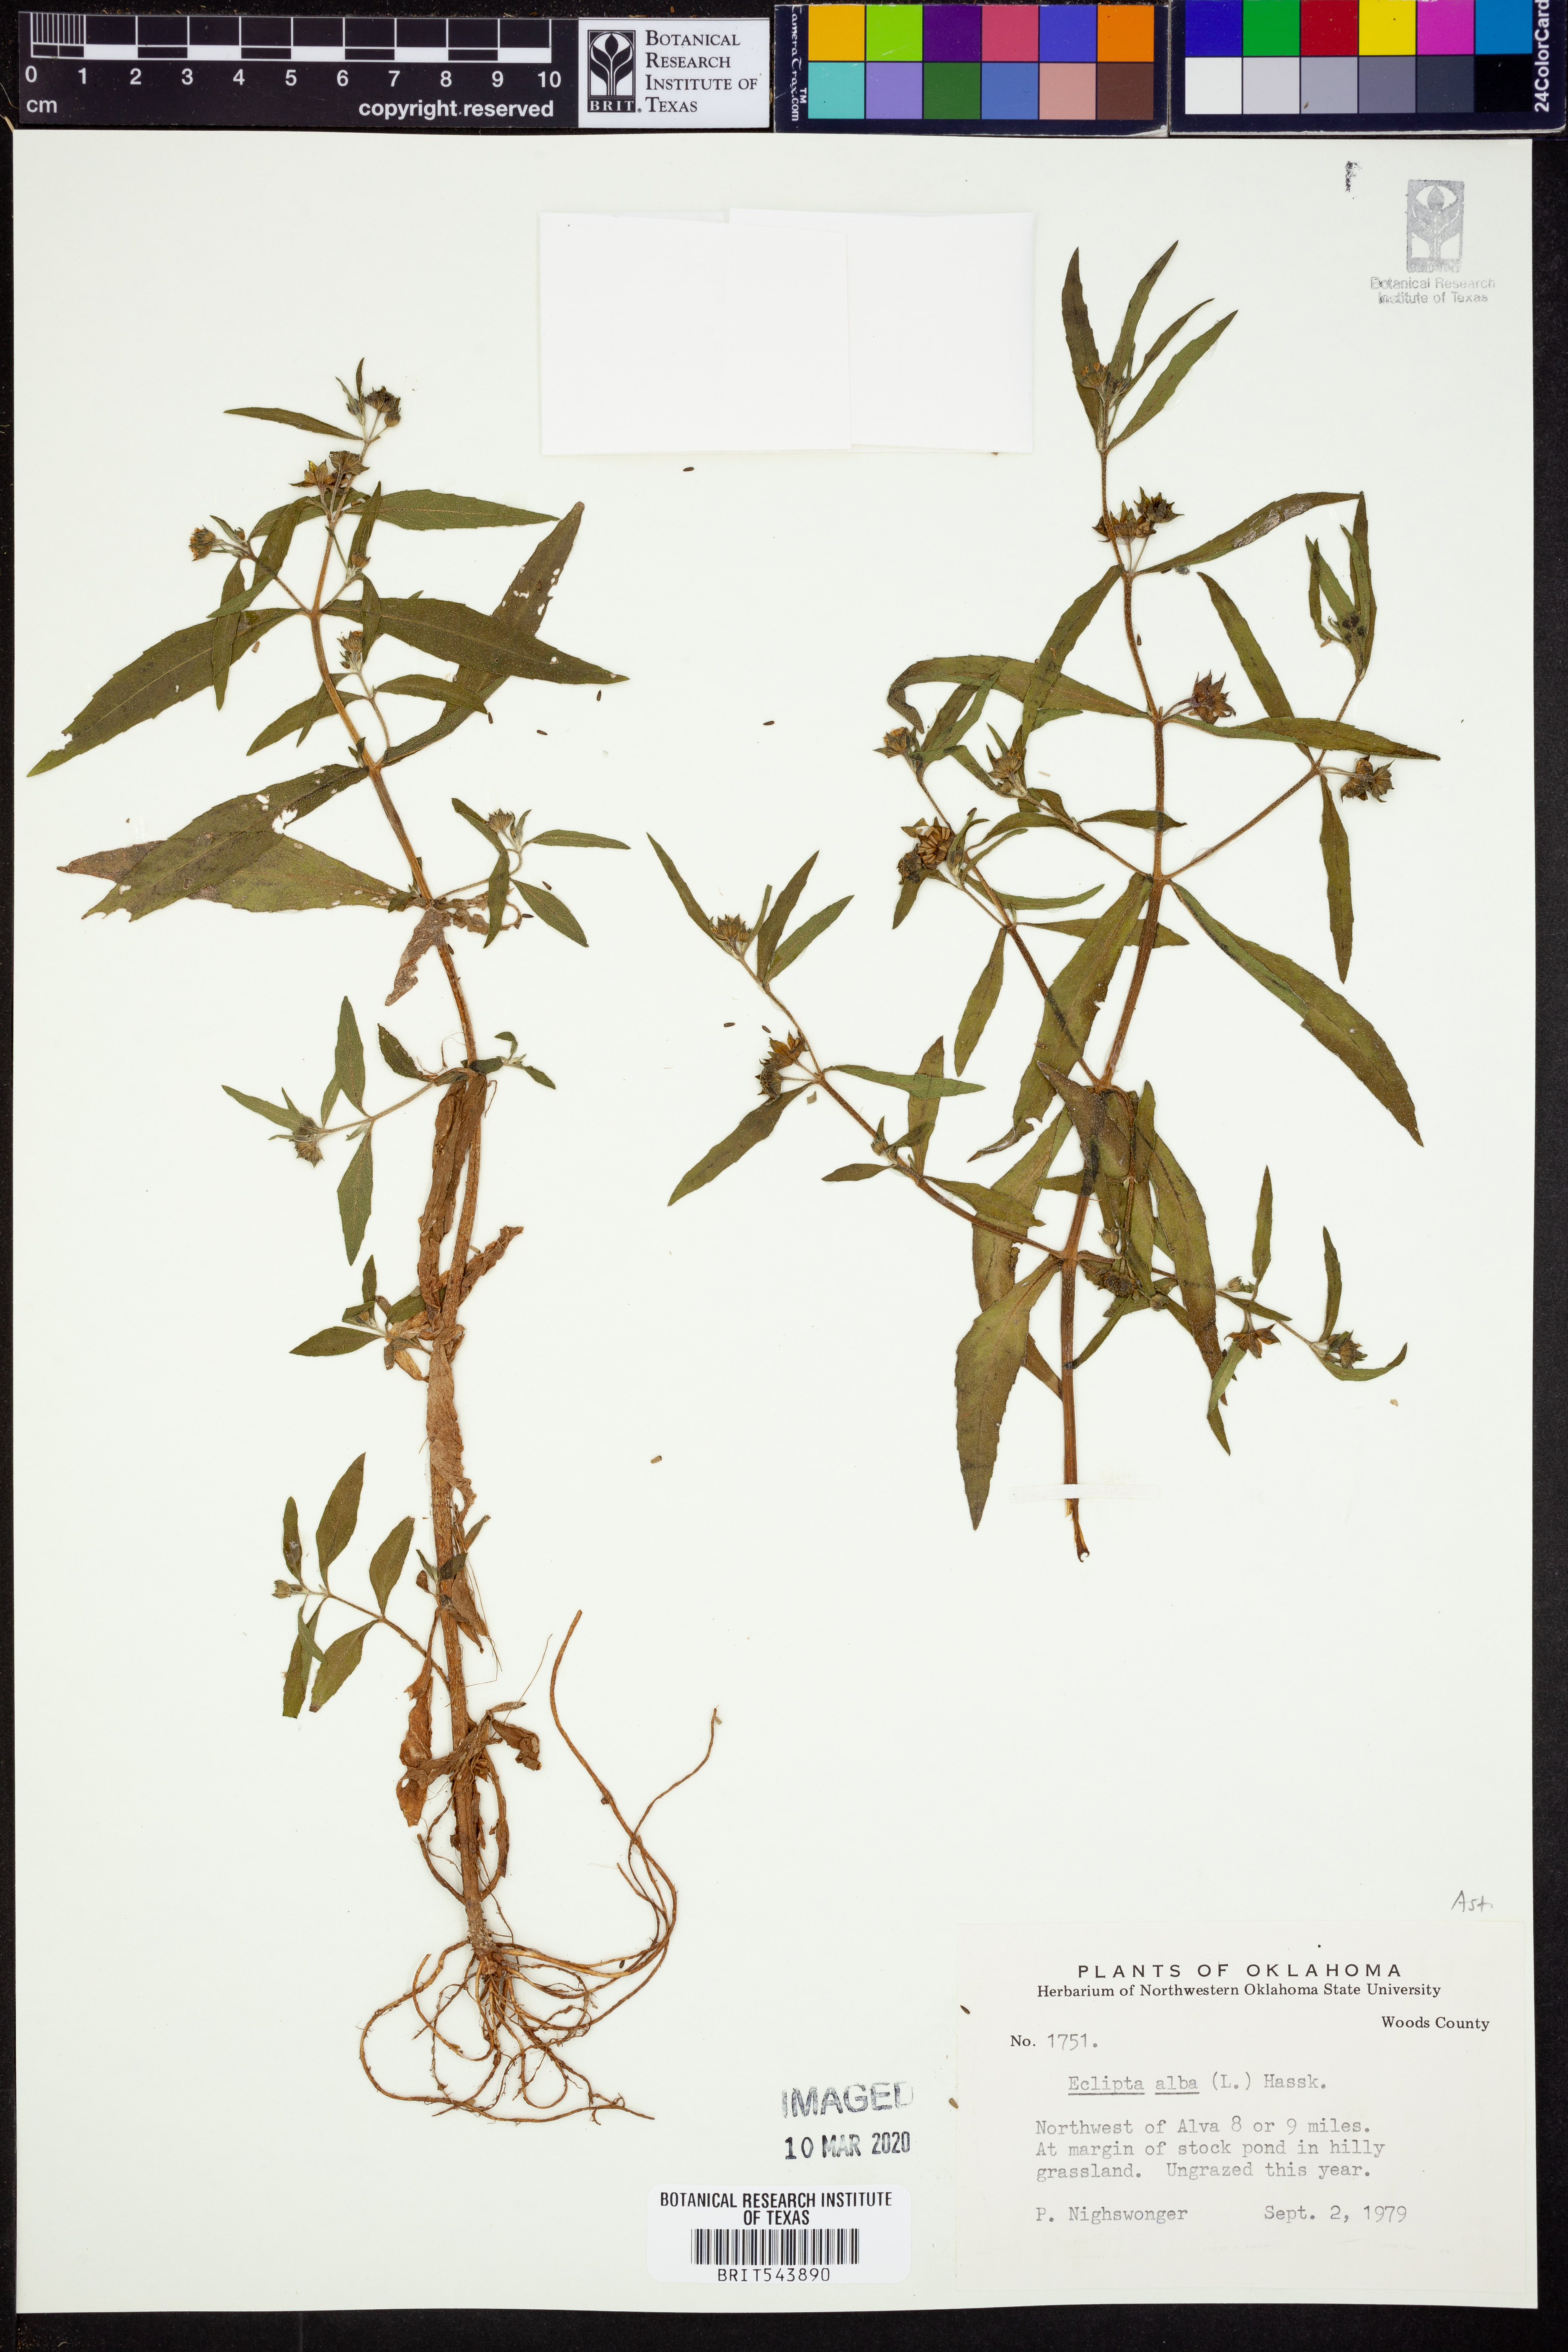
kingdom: Plantae
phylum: Tracheophyta
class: Magnoliopsida
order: Asterales
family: Asteraceae
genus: Eclipta
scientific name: Eclipta alba
